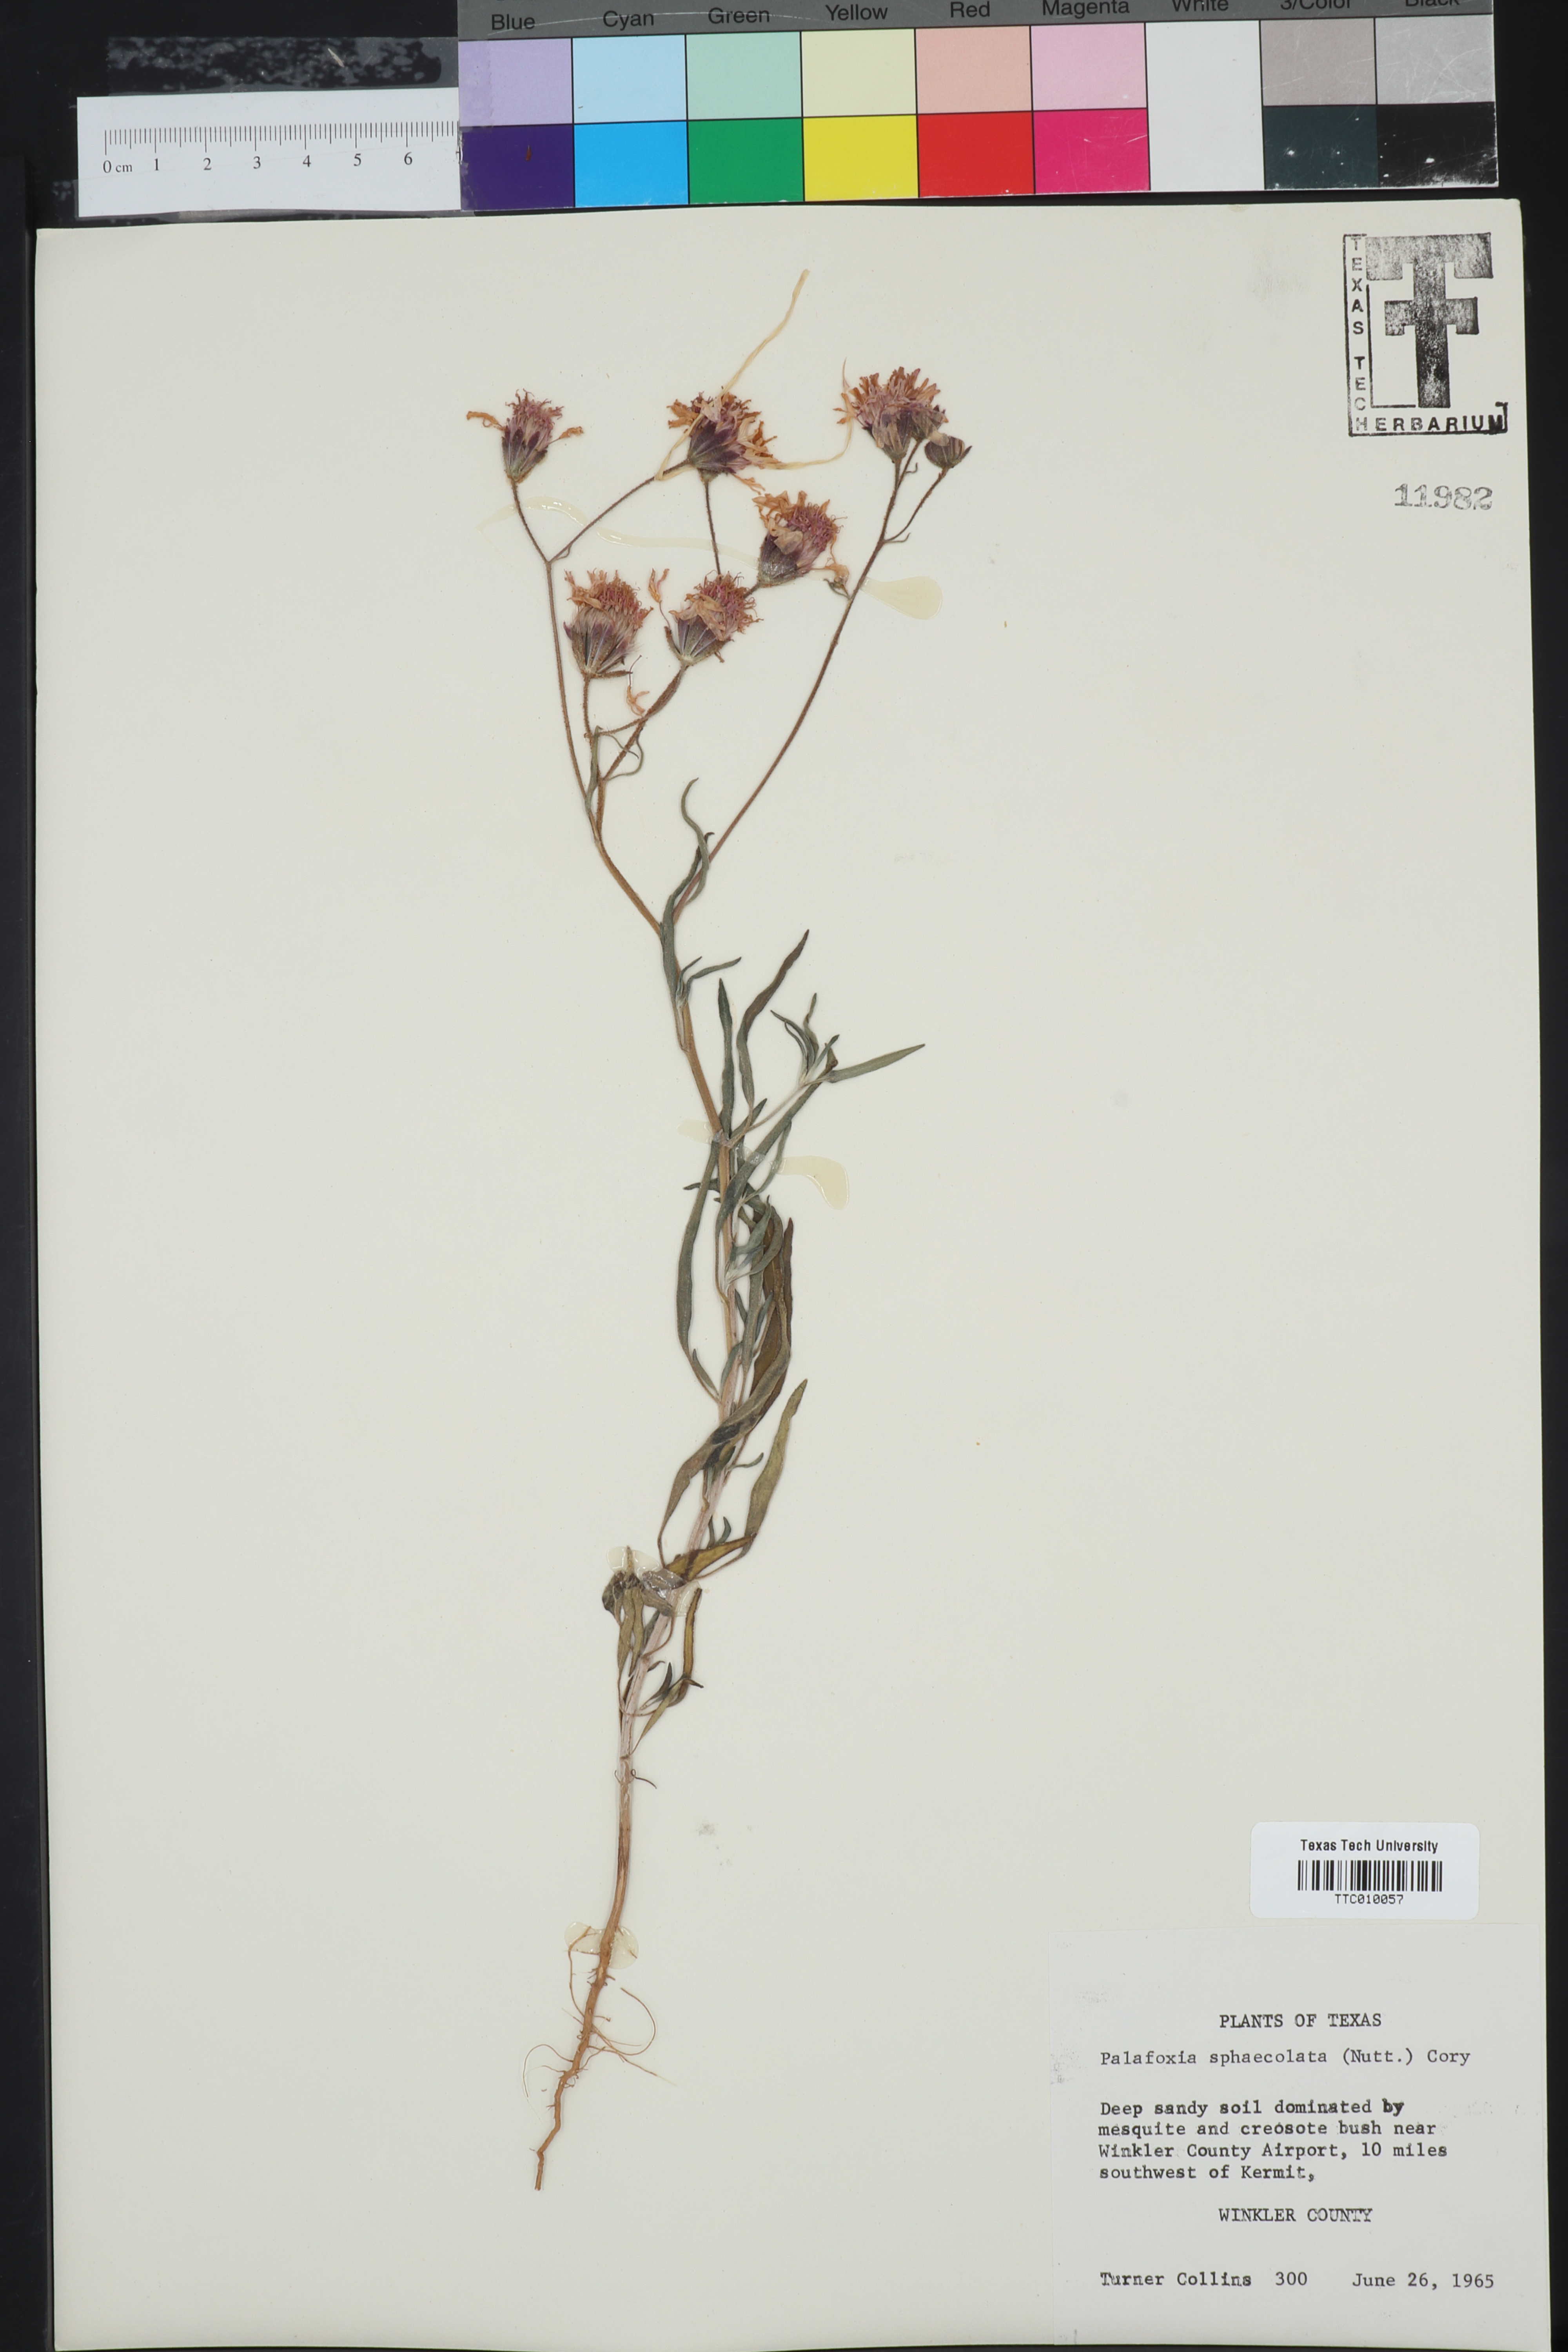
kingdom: Plantae
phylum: Tracheophyta
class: Magnoliopsida
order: Asterales
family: Asteraceae
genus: Palafoxia
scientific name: Palafoxia sphacelata
